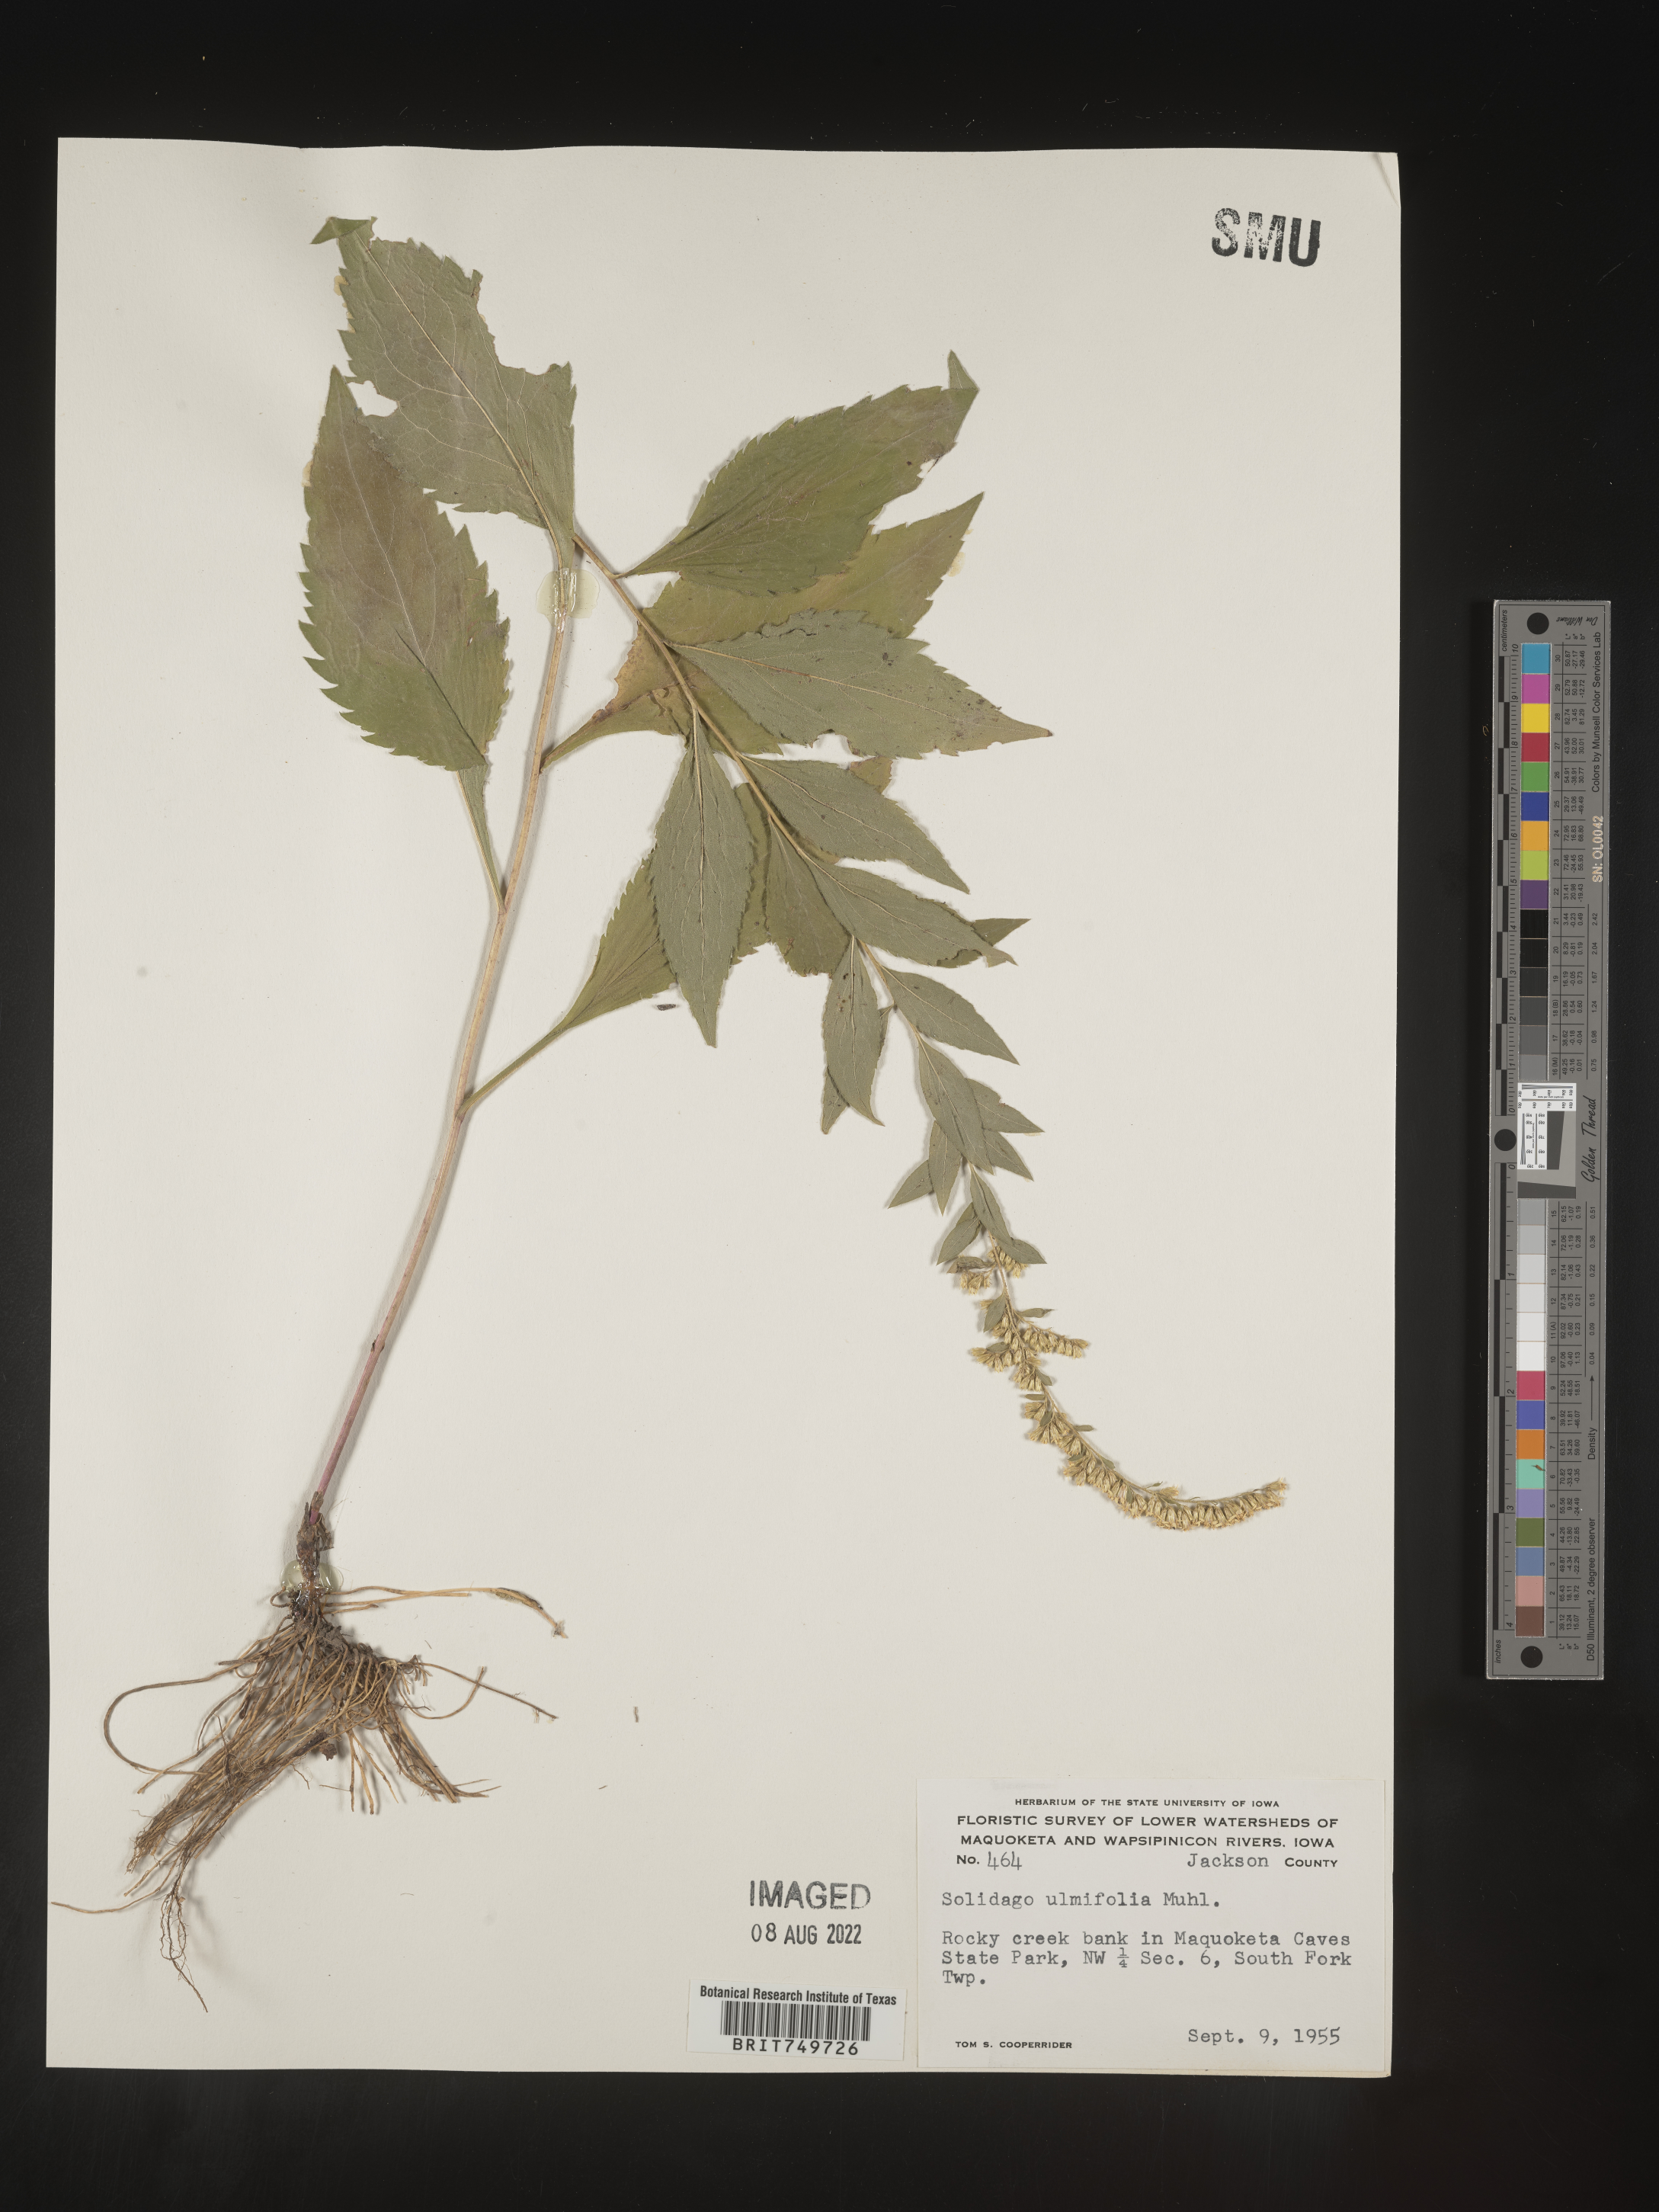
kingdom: Plantae
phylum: Tracheophyta
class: Magnoliopsida
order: Asterales
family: Asteraceae
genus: Solidago
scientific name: Solidago ulmifolia
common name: Elm-leaf goldenrod
